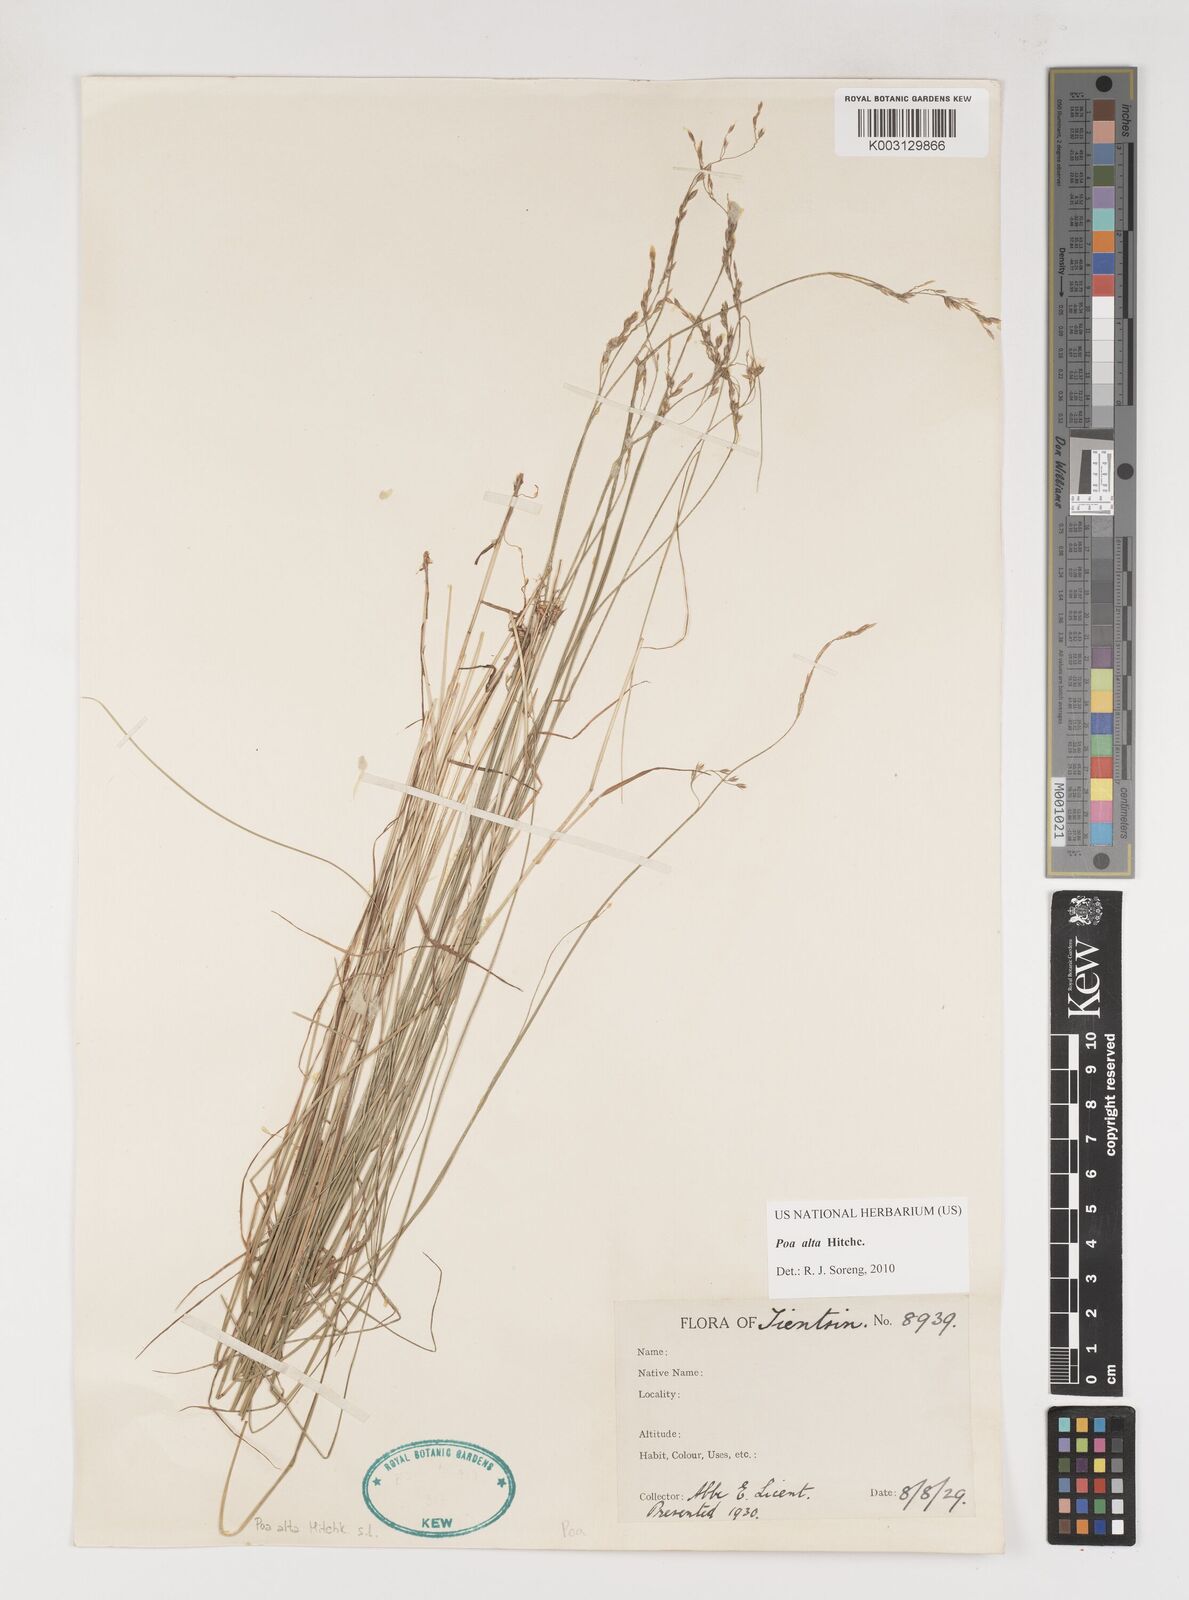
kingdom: Plantae
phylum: Tracheophyta
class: Liliopsida
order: Poales
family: Poaceae
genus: Poa
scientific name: Poa alta
